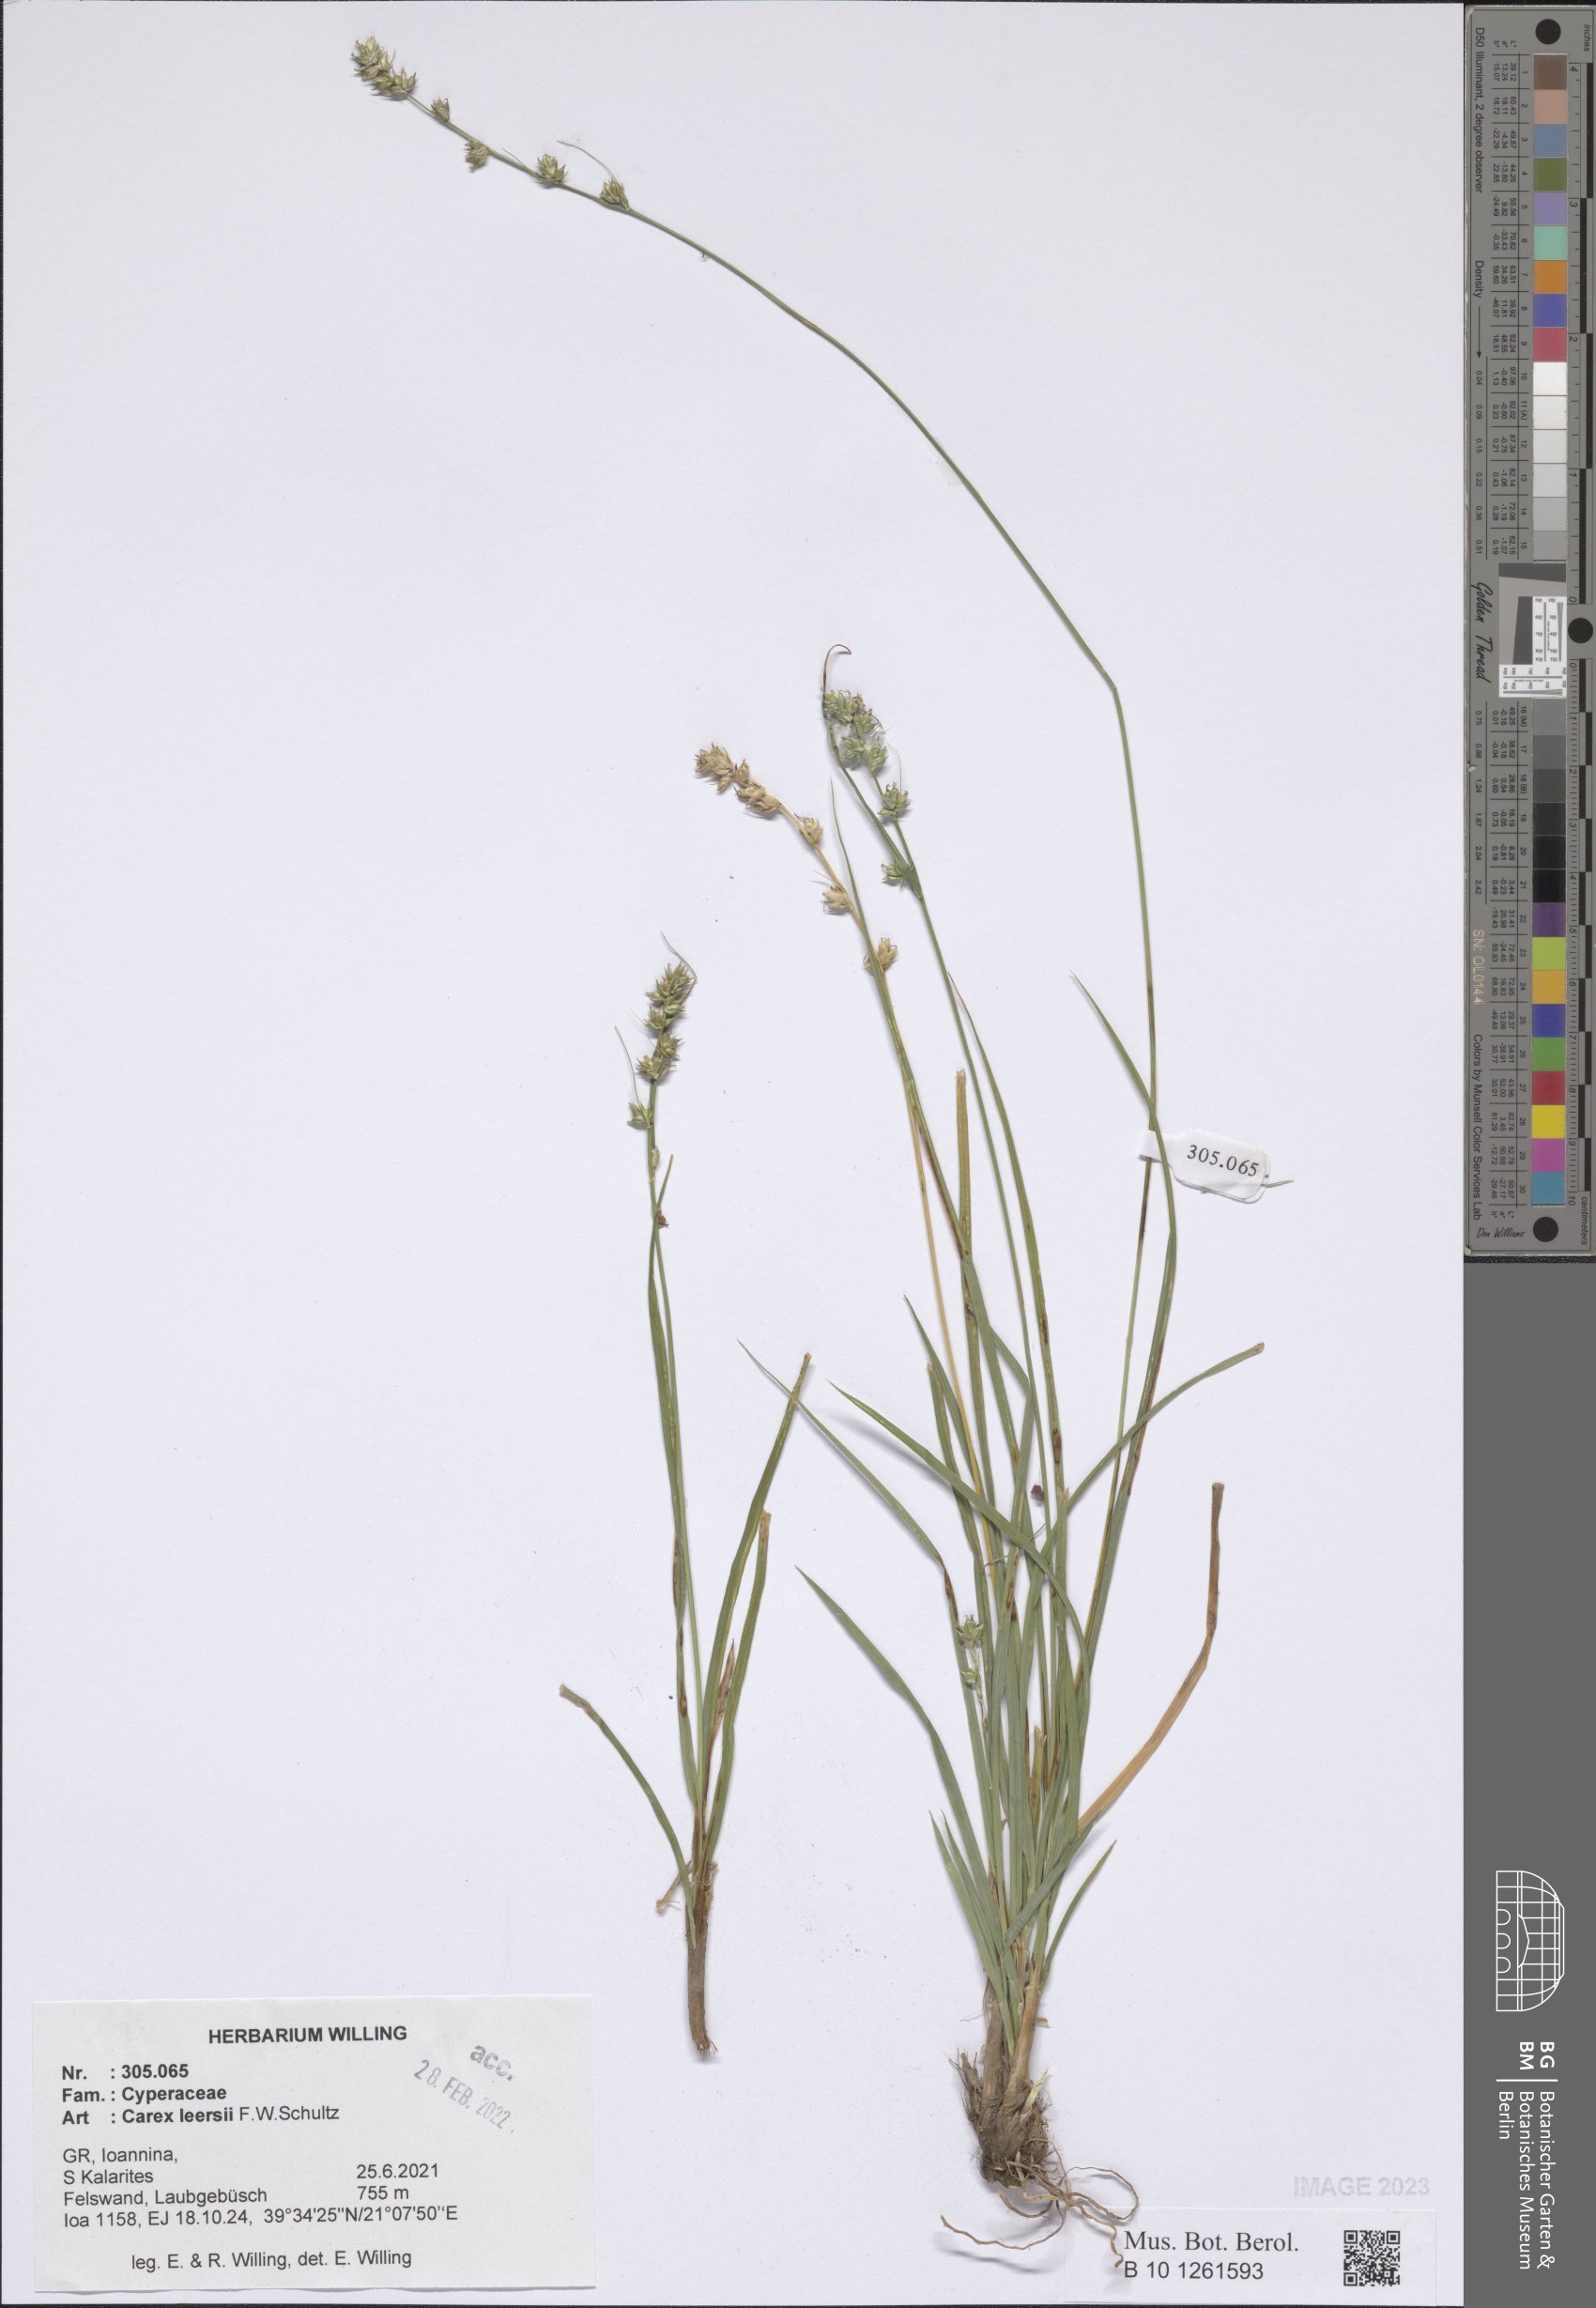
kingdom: Plantae
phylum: Tracheophyta
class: Liliopsida
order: Poales
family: Cyperaceae
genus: Carex
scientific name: Carex leersii
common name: Leers' sedge
